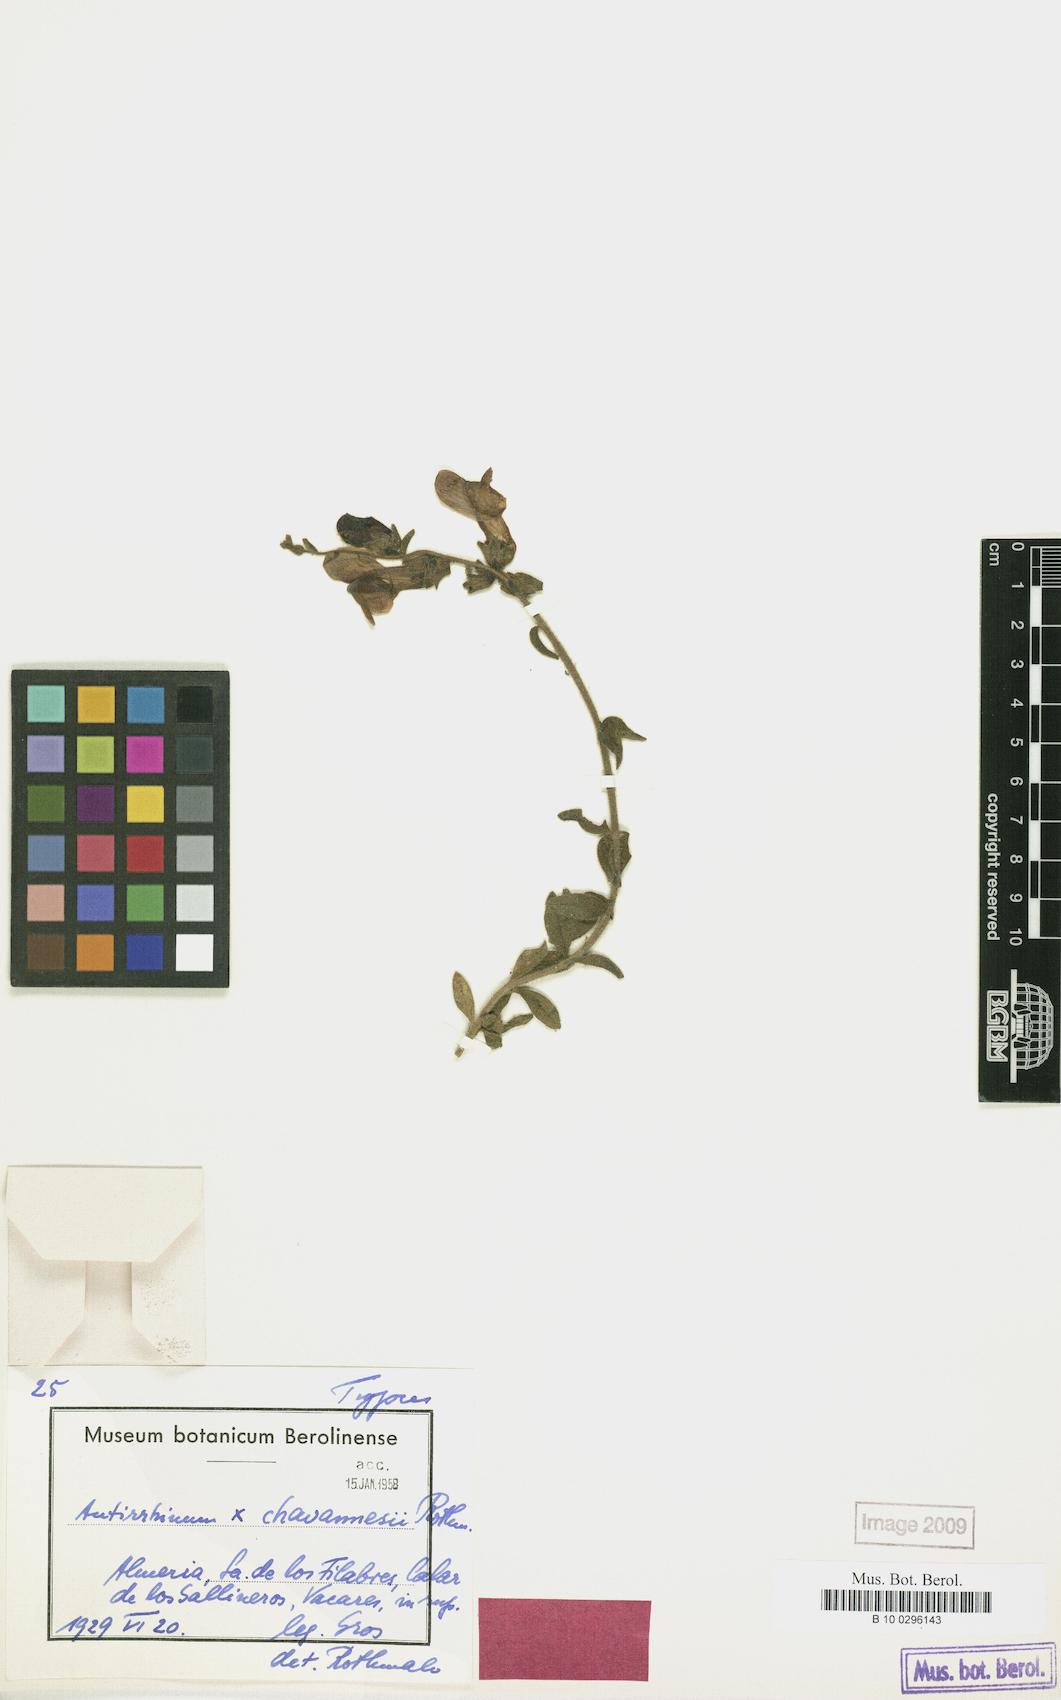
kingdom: Plantae
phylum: Tracheophyta
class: Magnoliopsida
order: Lamiales
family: Plantaginaceae
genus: Antirrhinum
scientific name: Antirrhinum chavannesii
